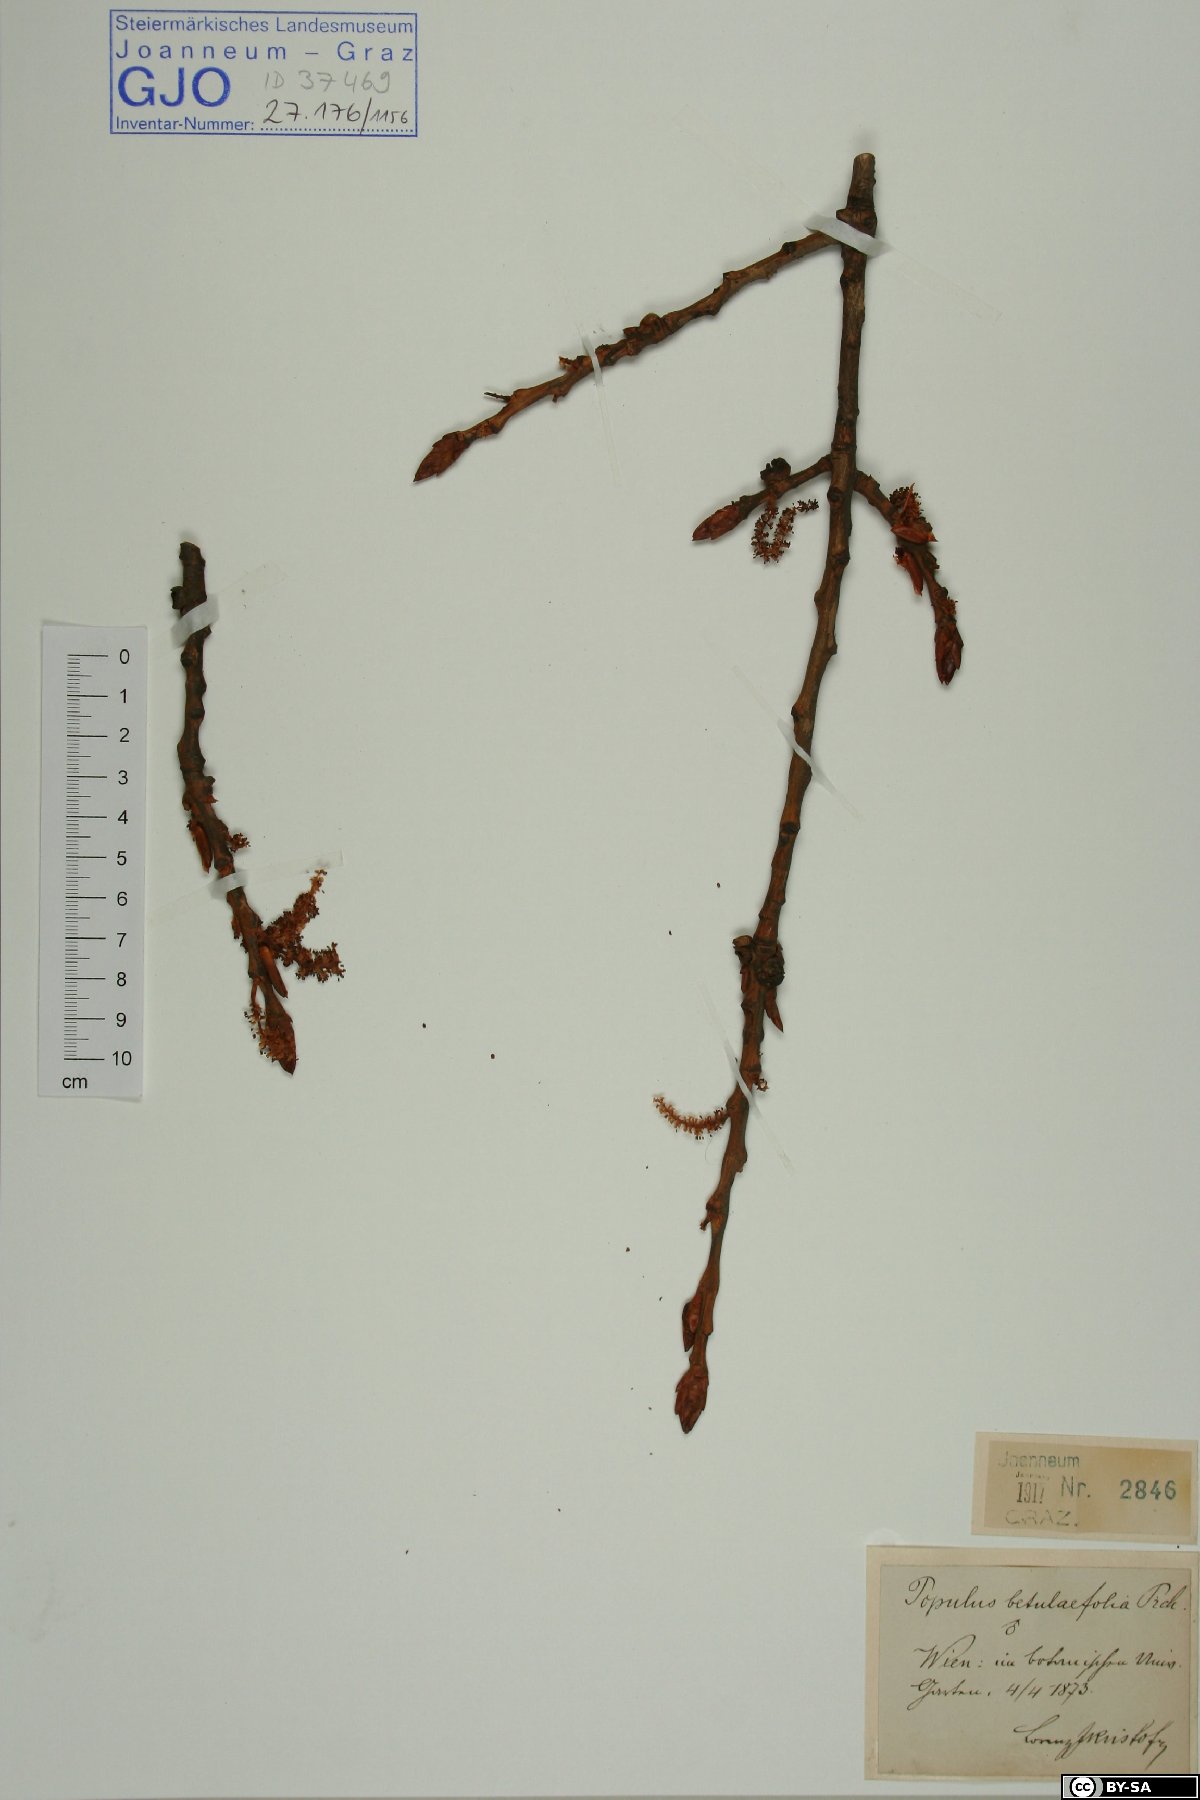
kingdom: Plantae
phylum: Tracheophyta
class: Magnoliopsida
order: Malpighiales
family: Salicaceae
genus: Populus
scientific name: Populus nigra
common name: Black poplar
